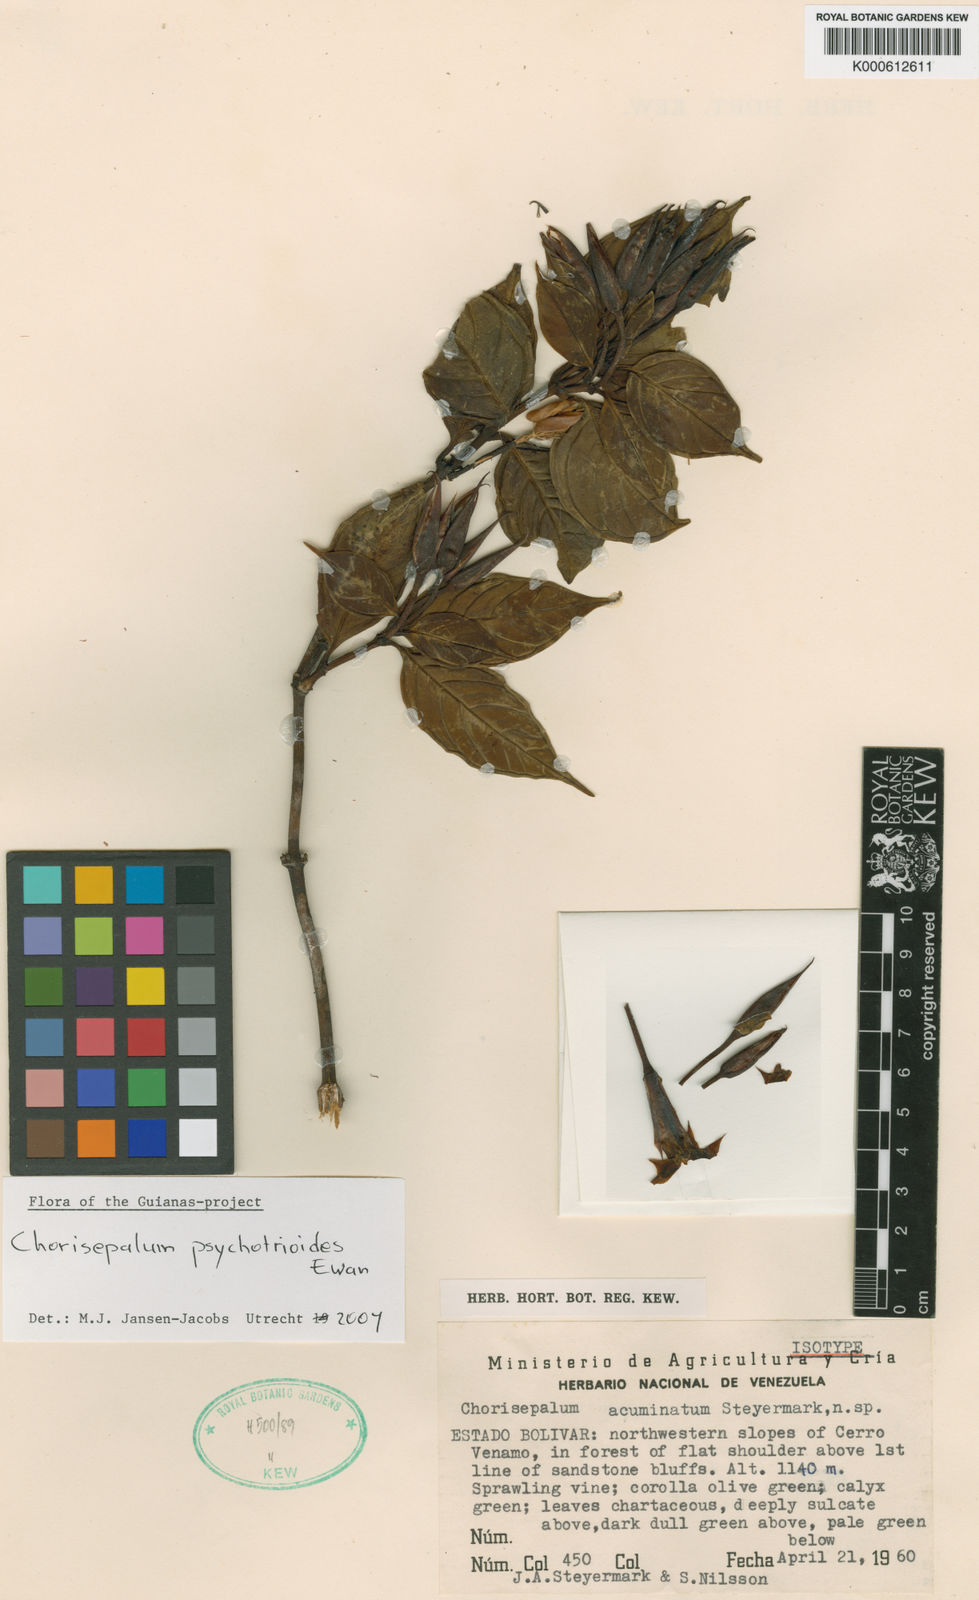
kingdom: Plantae
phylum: Tracheophyta
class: Magnoliopsida
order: Gentianales
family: Gentianaceae
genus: Chorisepalum
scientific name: Chorisepalum psychotrioides
